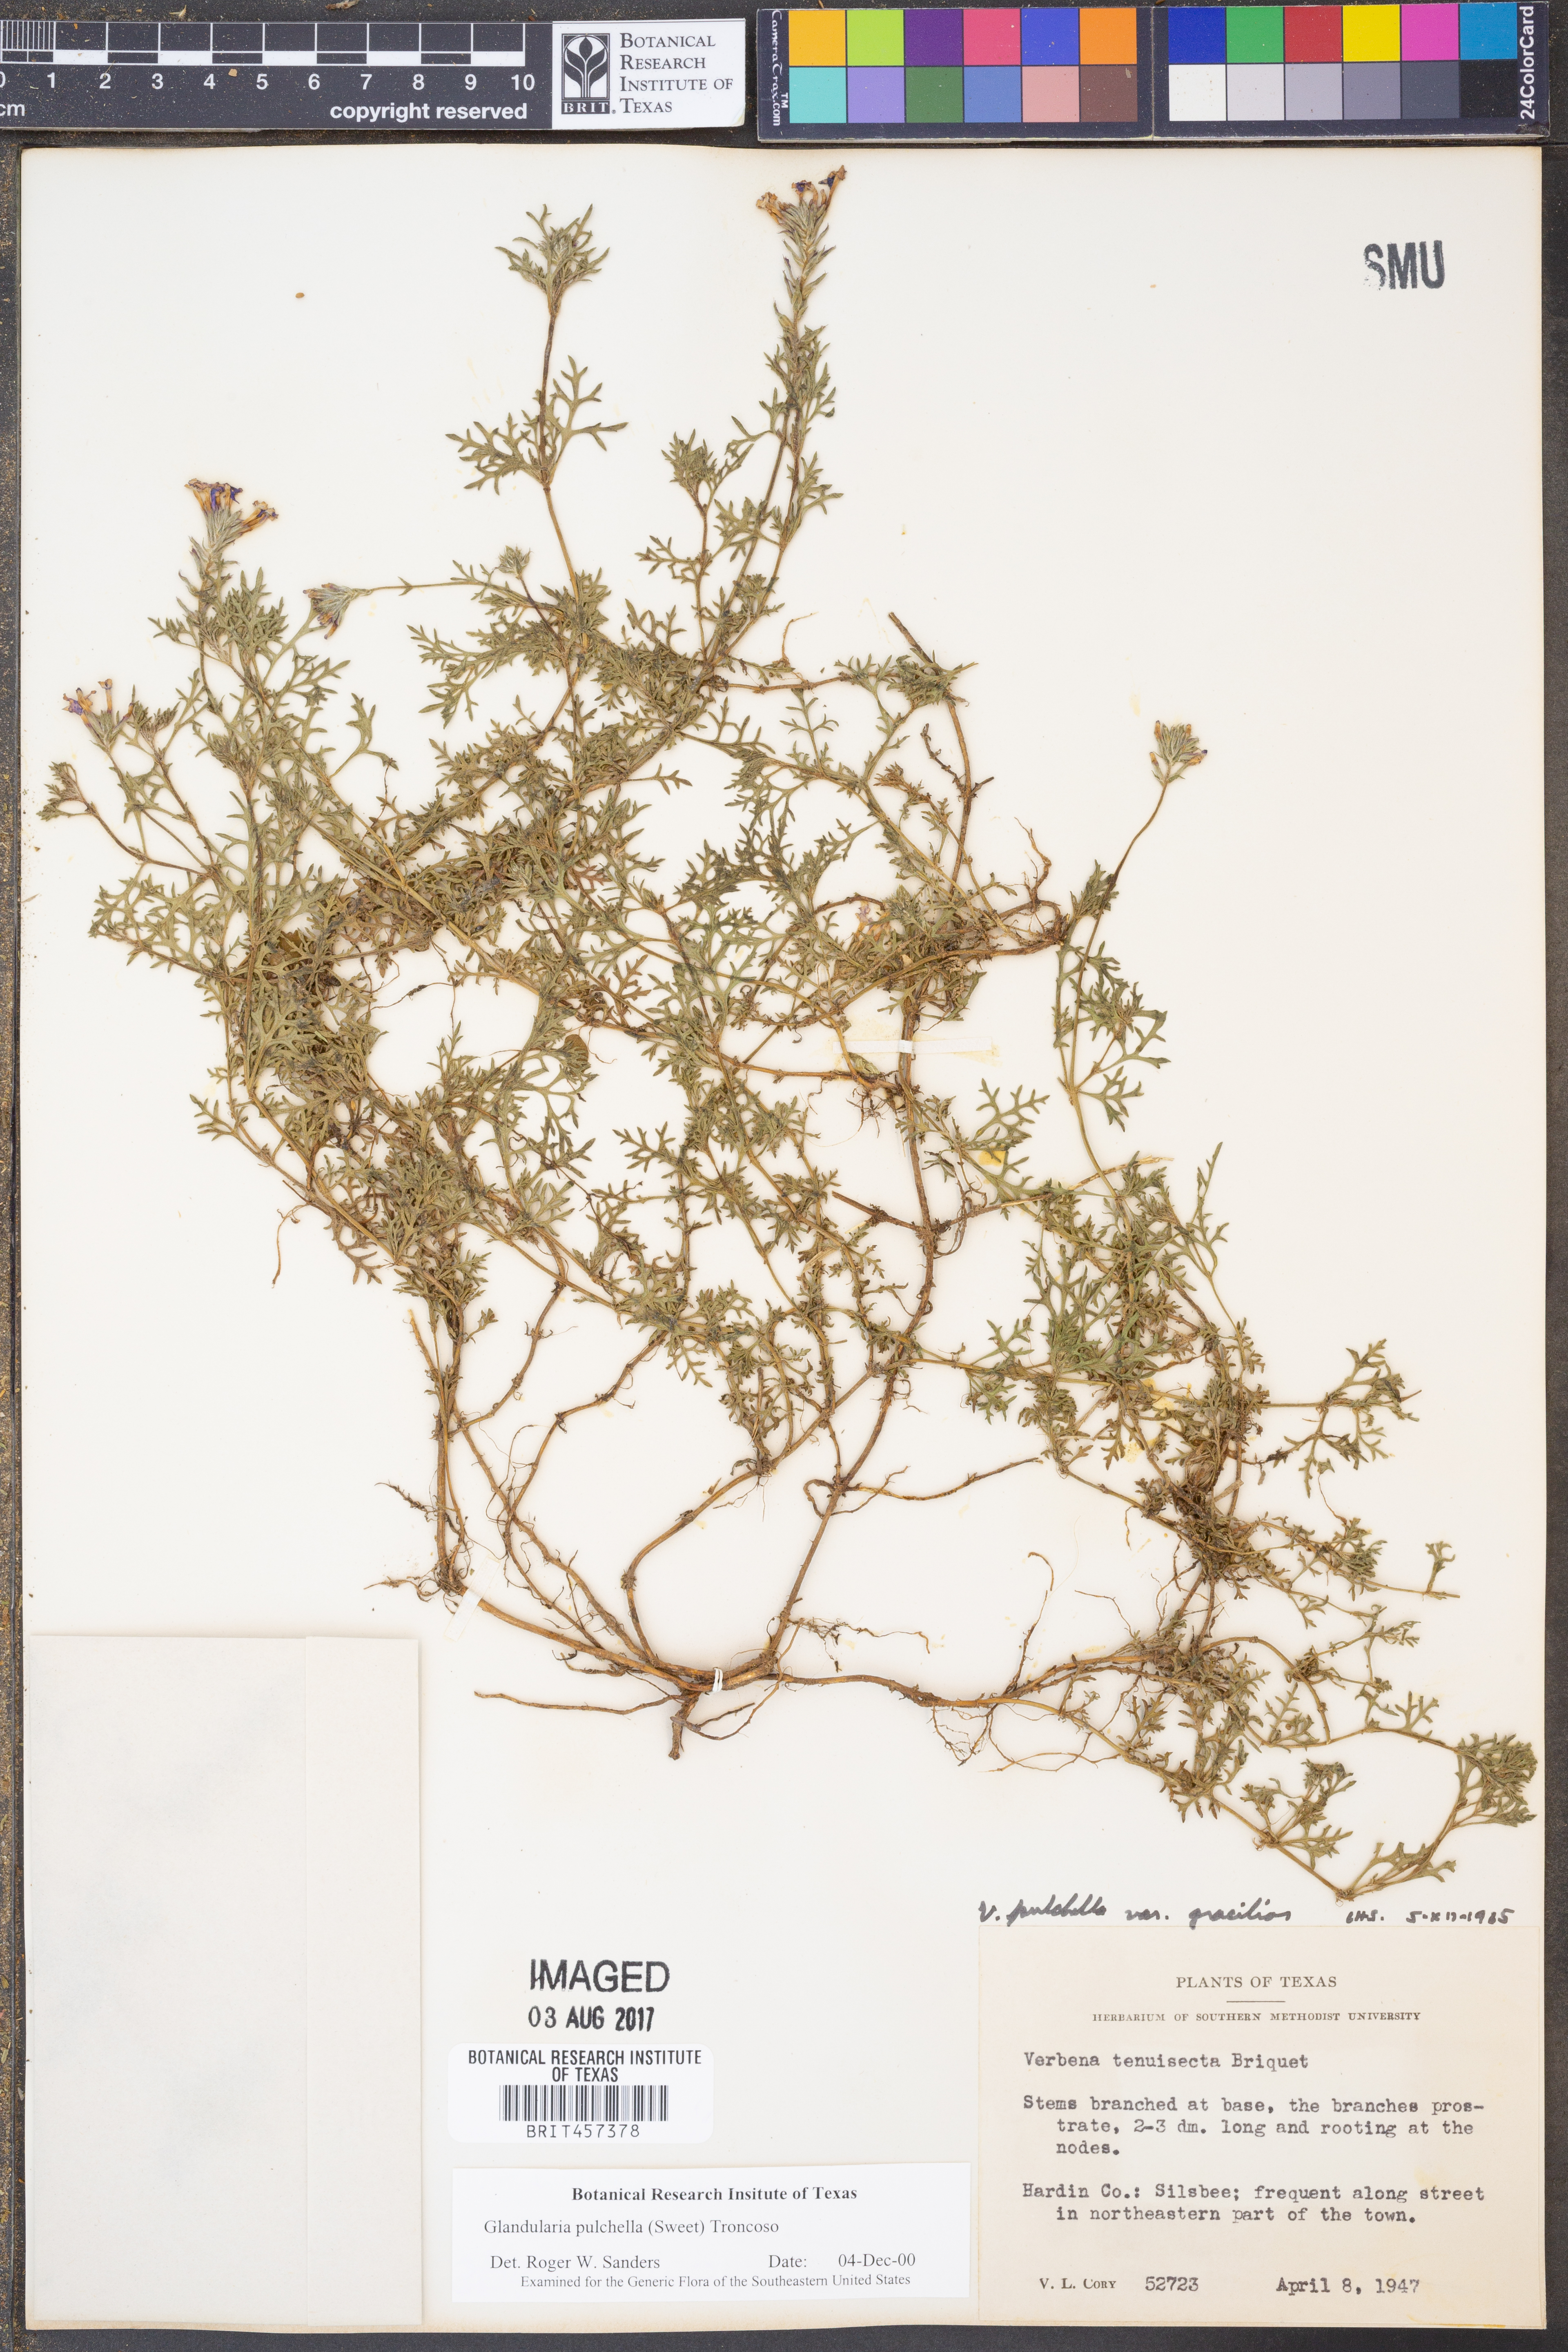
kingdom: Plantae
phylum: Tracheophyta
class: Magnoliopsida
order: Lamiales
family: Verbenaceae
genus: Verbena
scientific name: Verbena tenera
